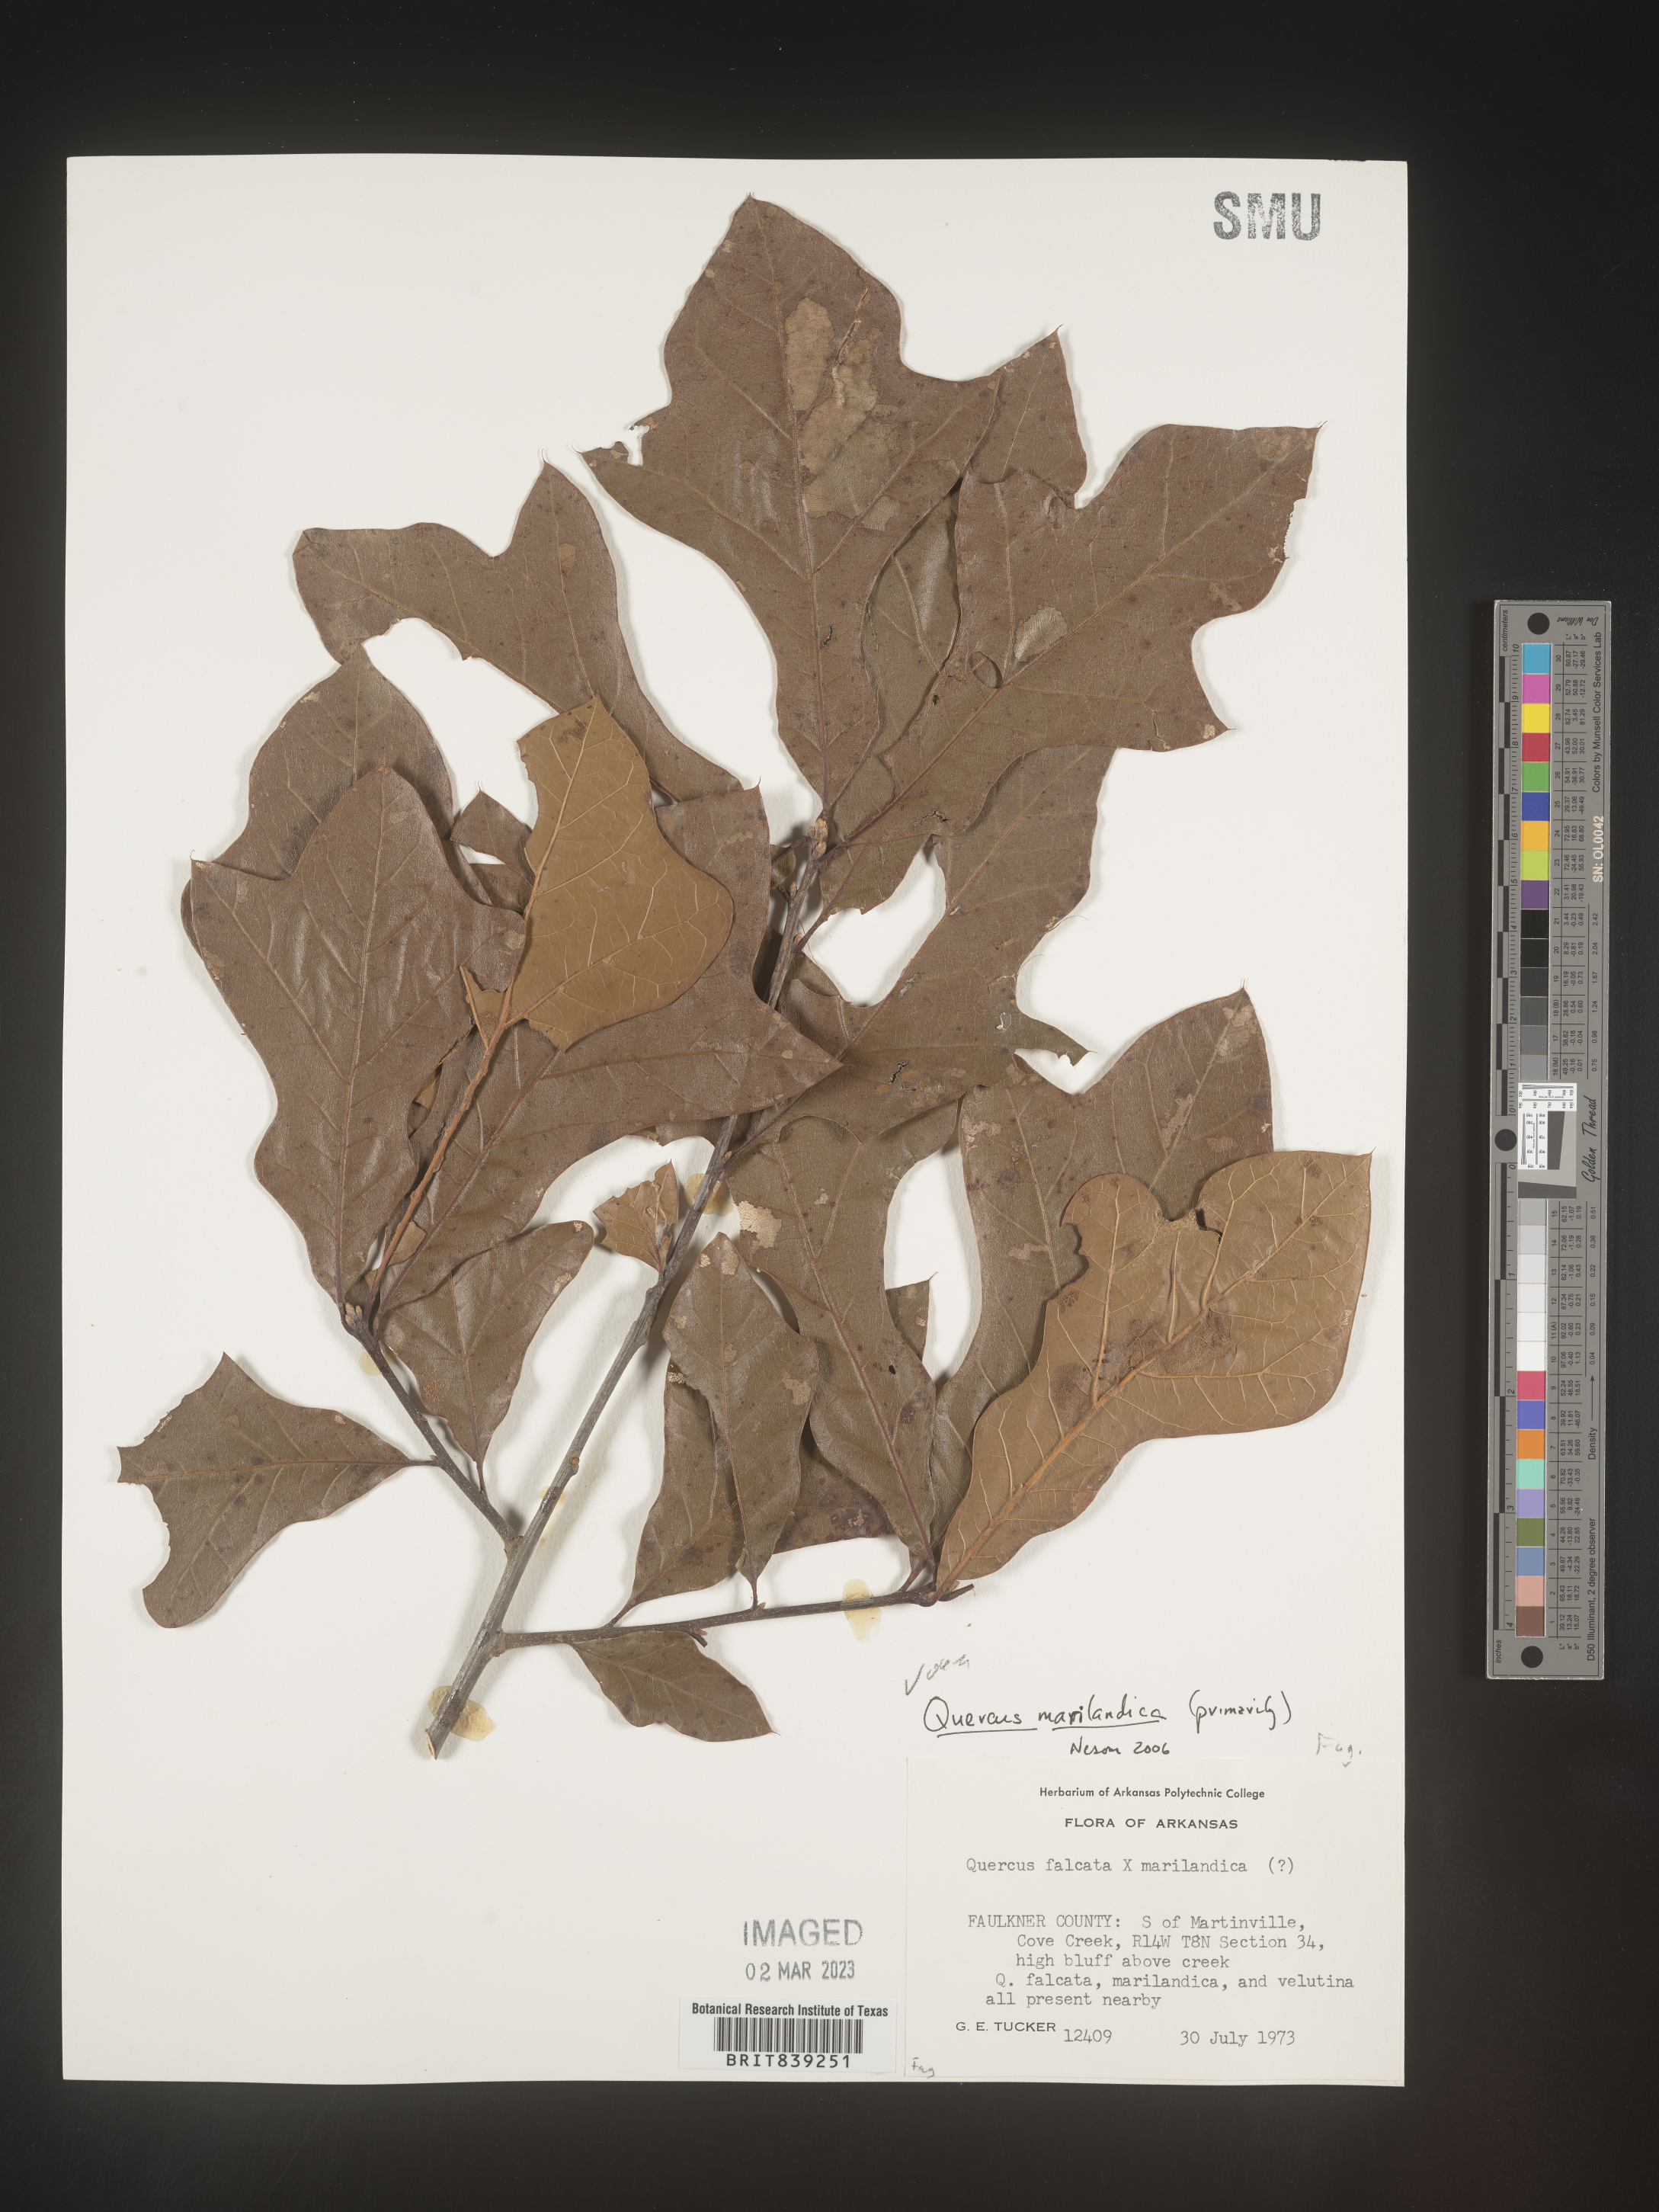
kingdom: Plantae
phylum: Tracheophyta
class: Magnoliopsida
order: Fagales
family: Fagaceae
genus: Quercus
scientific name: Quercus marilandica
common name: Blackjack oak
